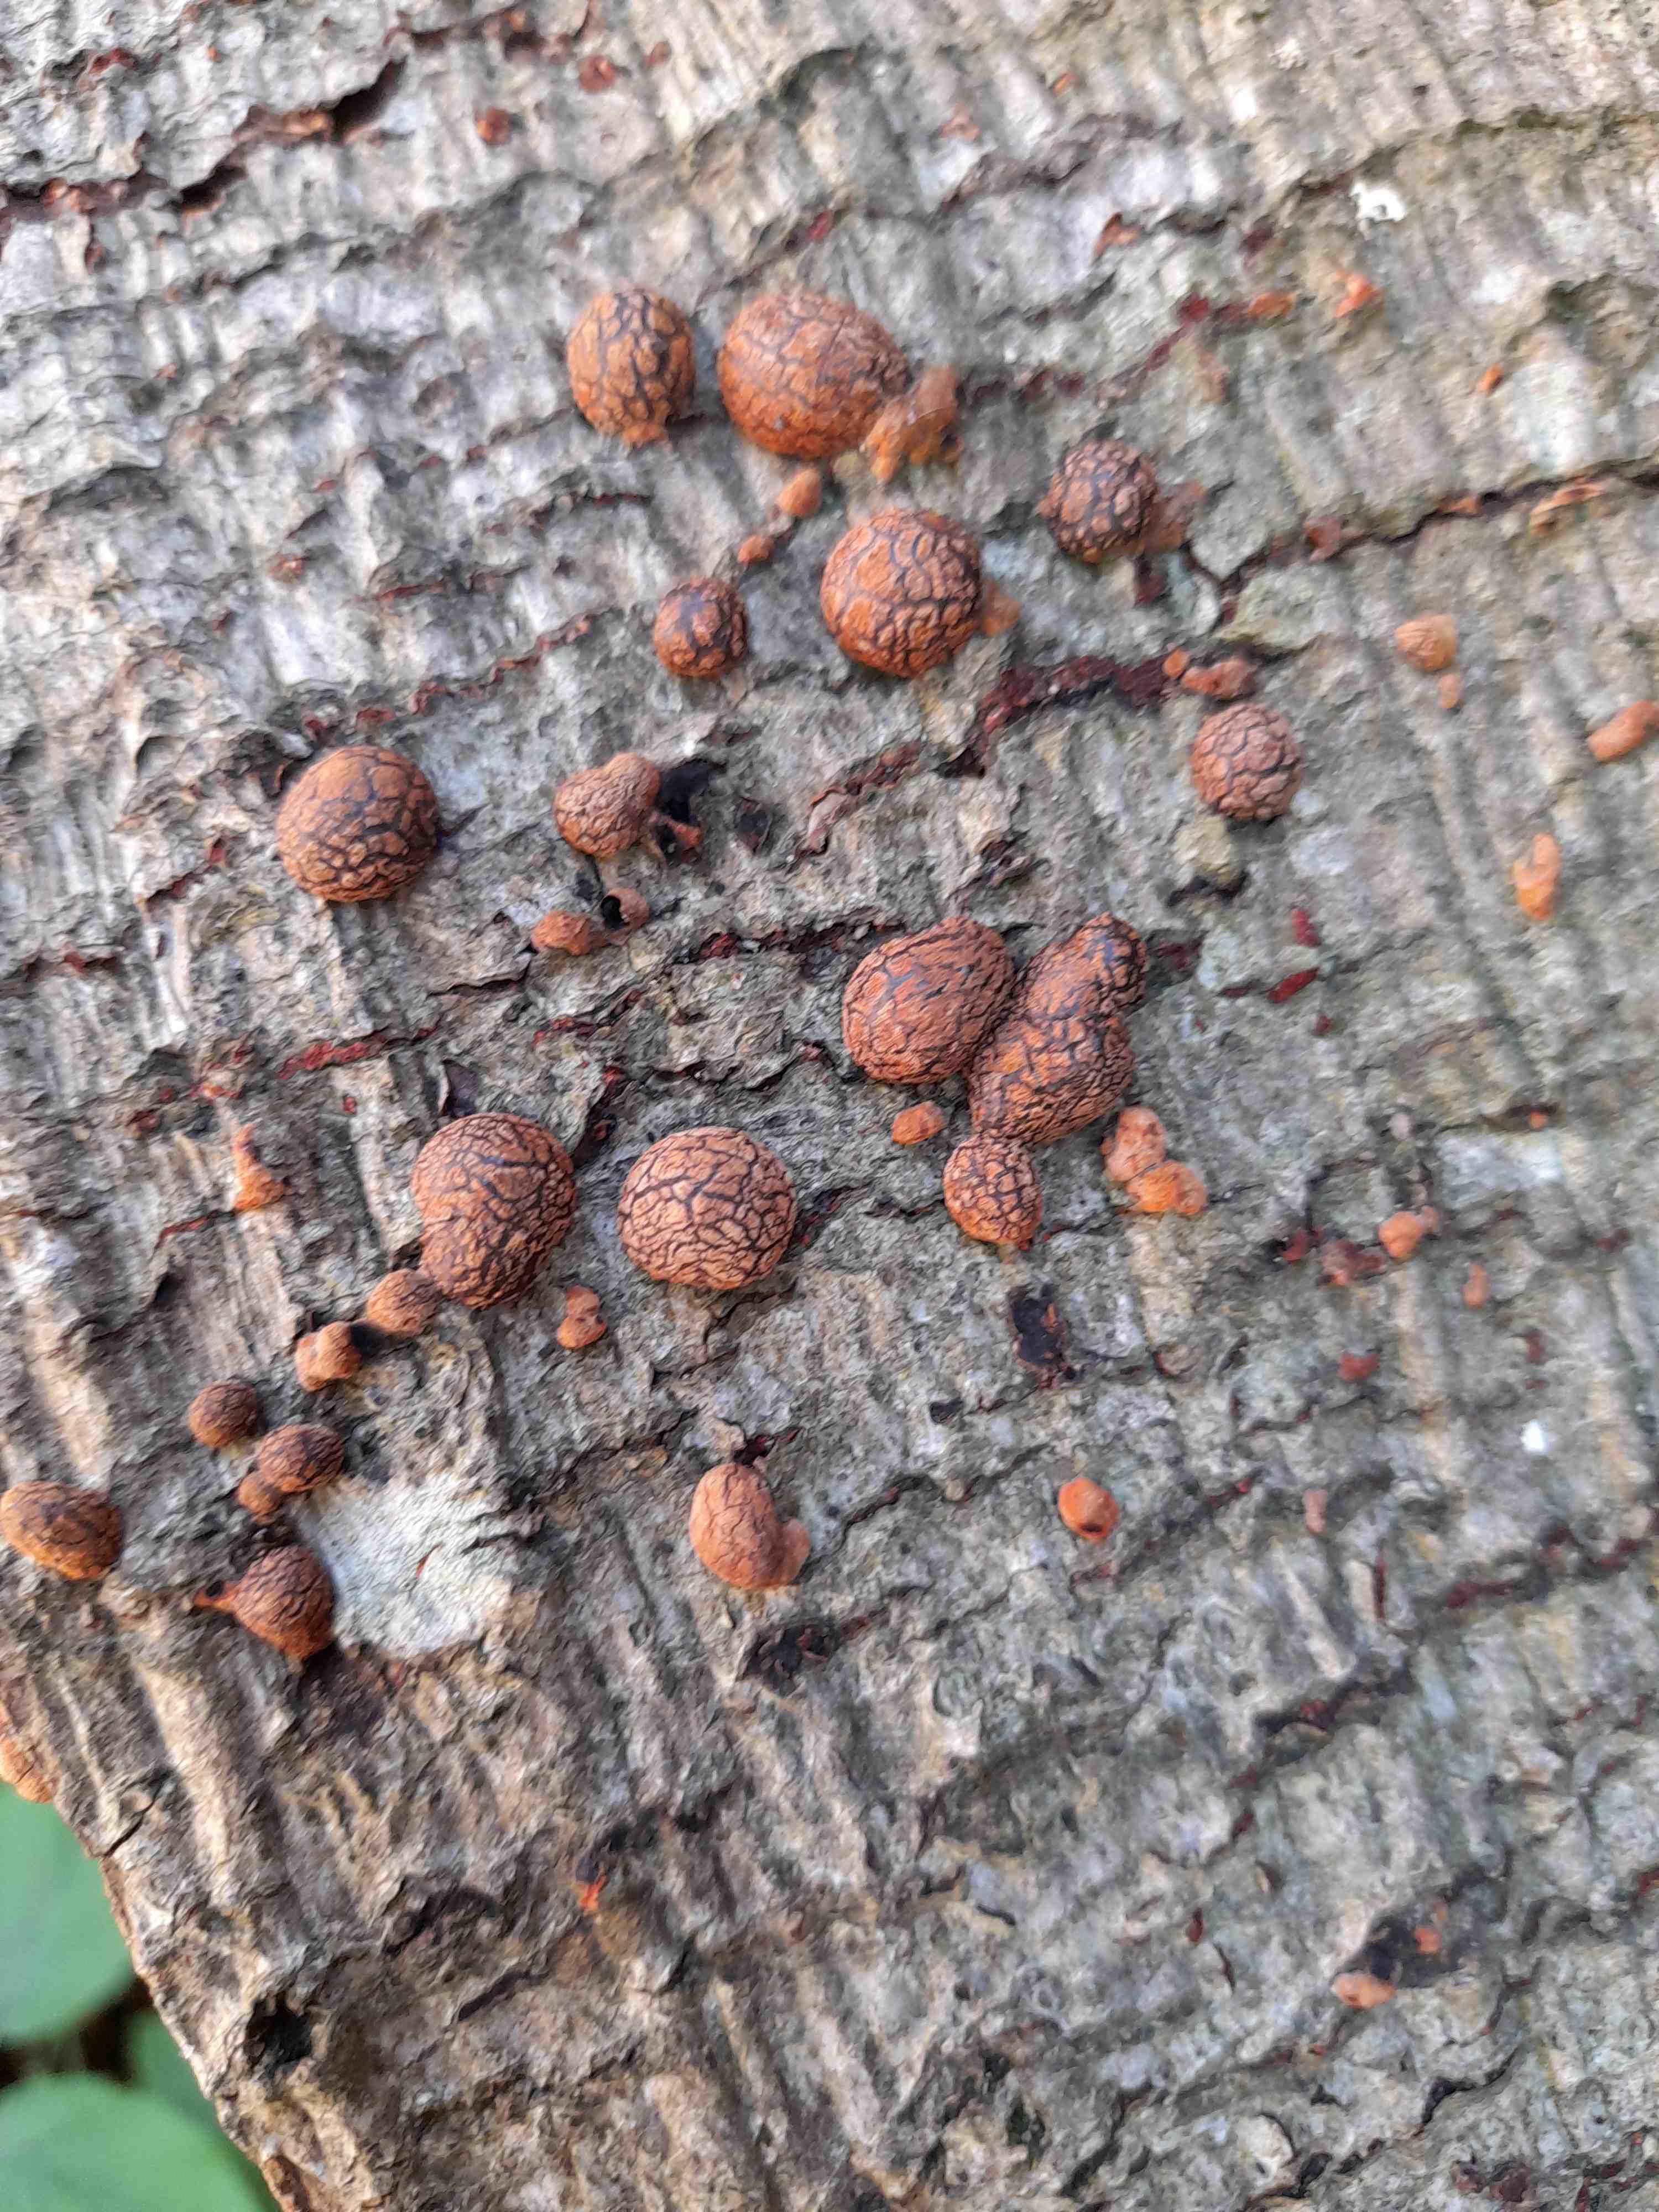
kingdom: Fungi
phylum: Ascomycota
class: Sordariomycetes
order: Xylariales
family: Hypoxylaceae
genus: Hypoxylon
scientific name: Hypoxylon fragiforme
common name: kuljordbær
